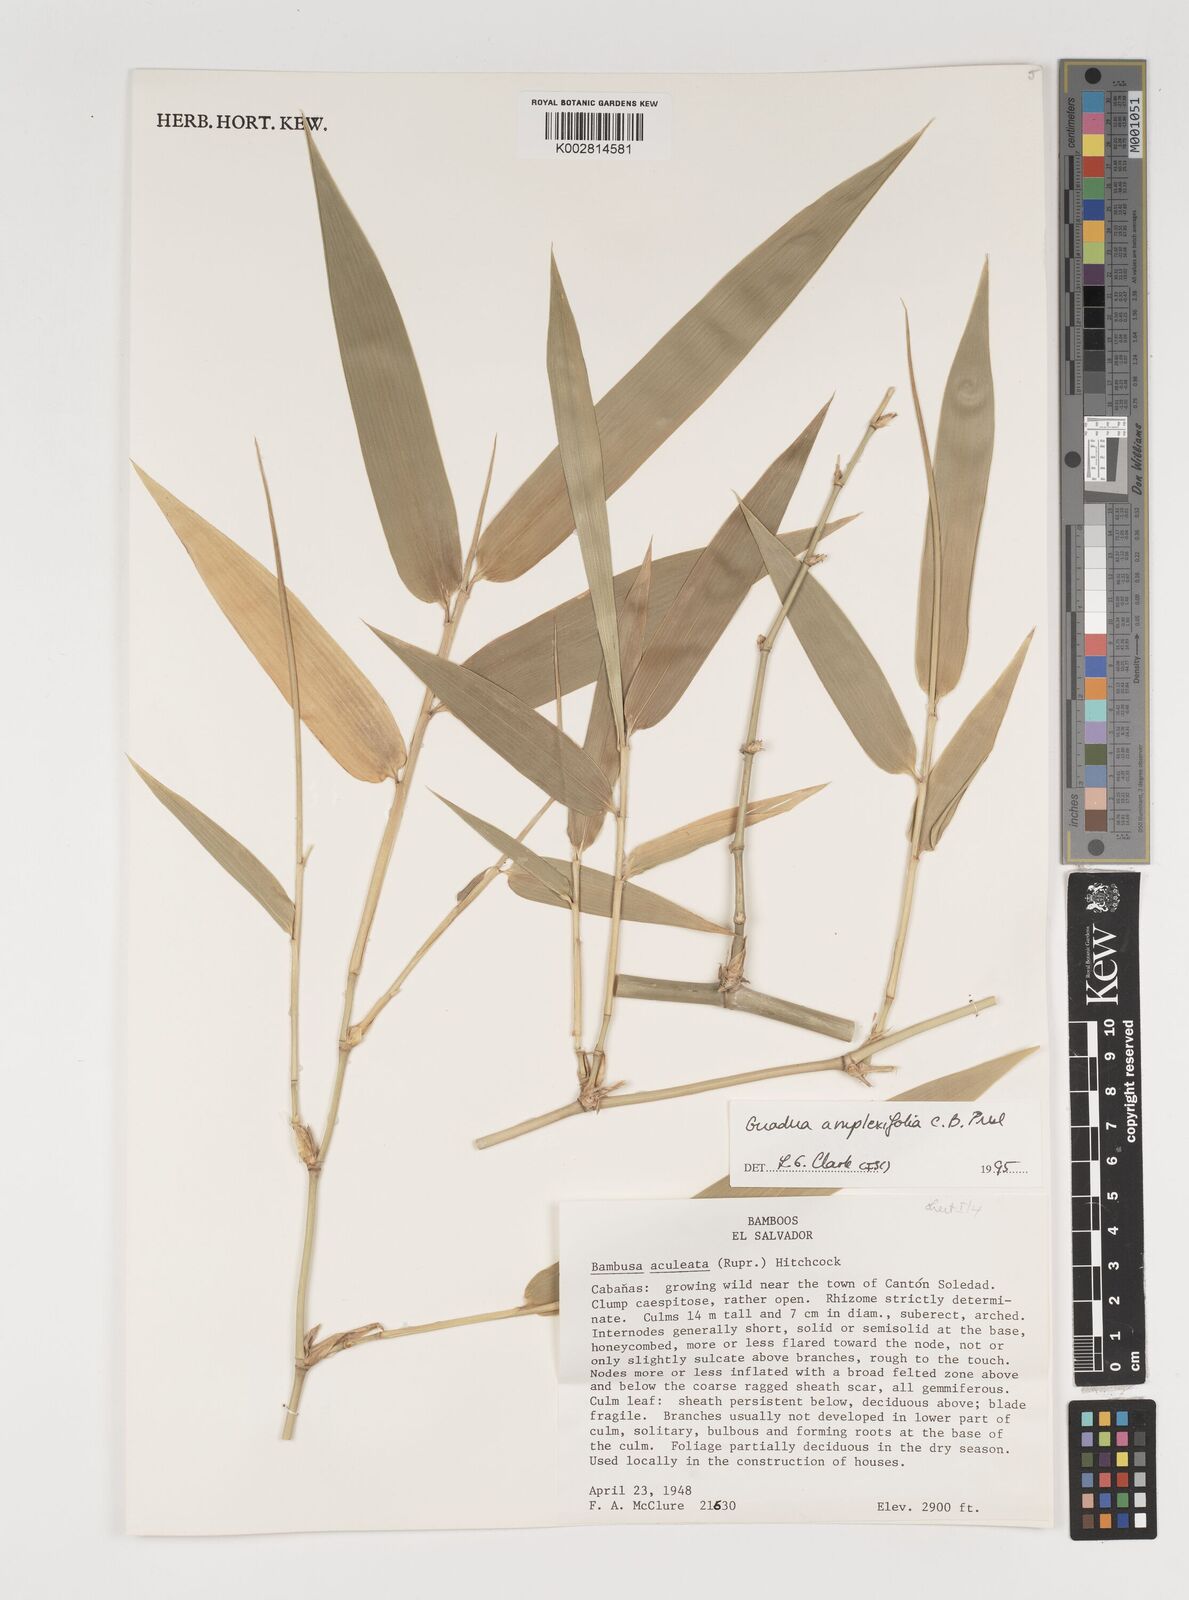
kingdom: Plantae
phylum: Tracheophyta
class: Liliopsida
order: Poales
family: Poaceae
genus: Guadua
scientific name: Guadua amplexifolia
